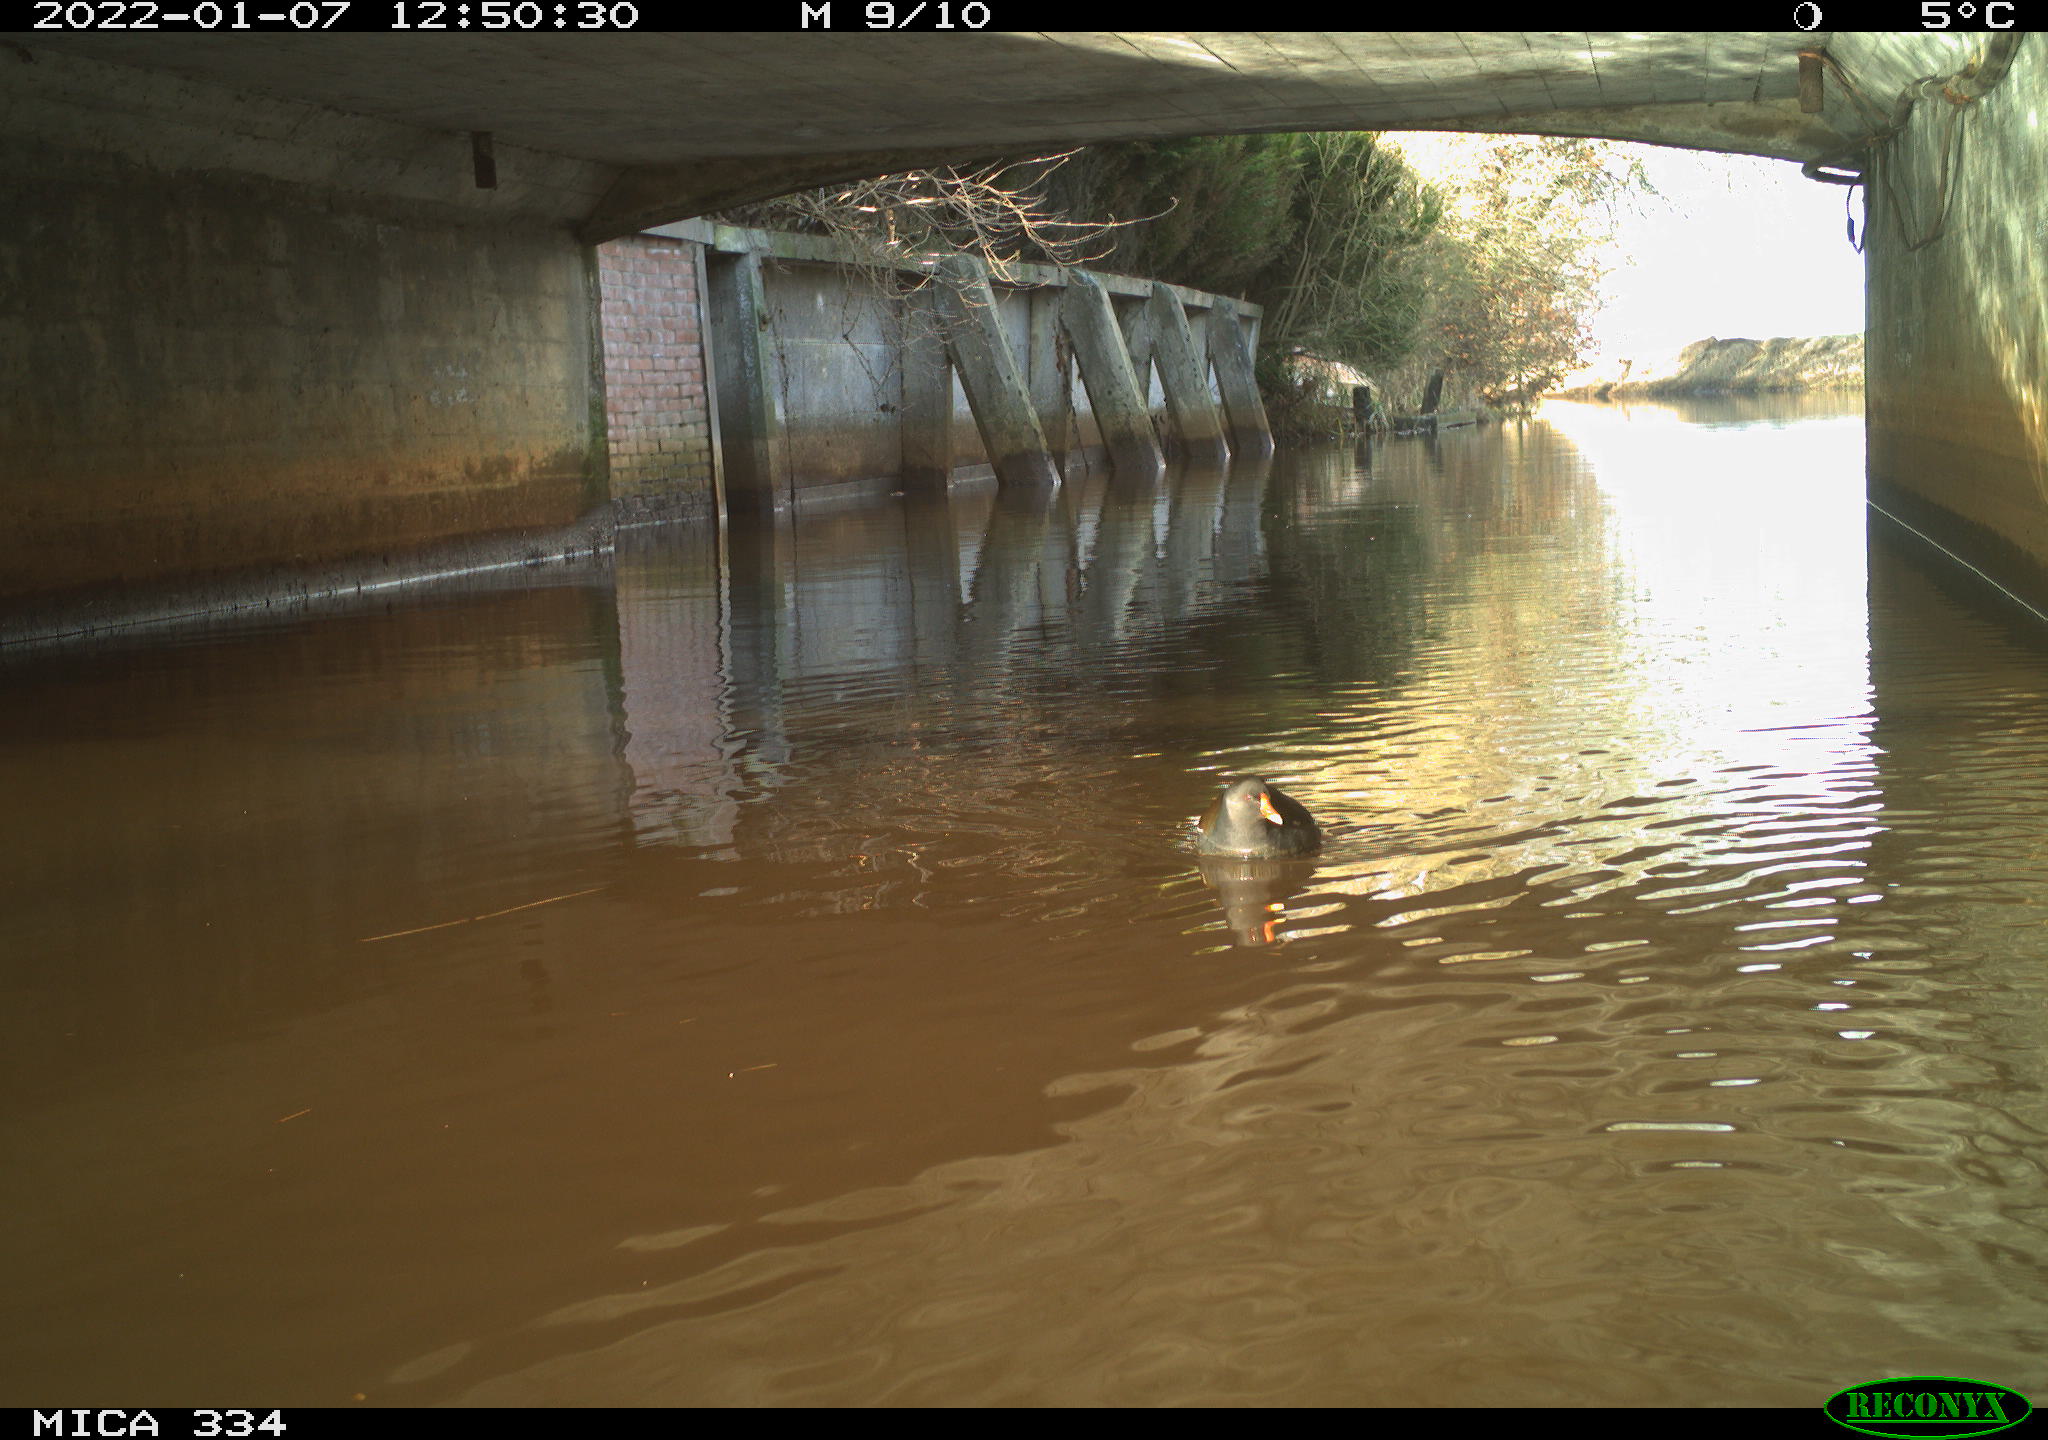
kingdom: Animalia
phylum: Chordata
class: Aves
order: Gruiformes
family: Rallidae
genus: Gallinula
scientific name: Gallinula chloropus
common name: Common moorhen
